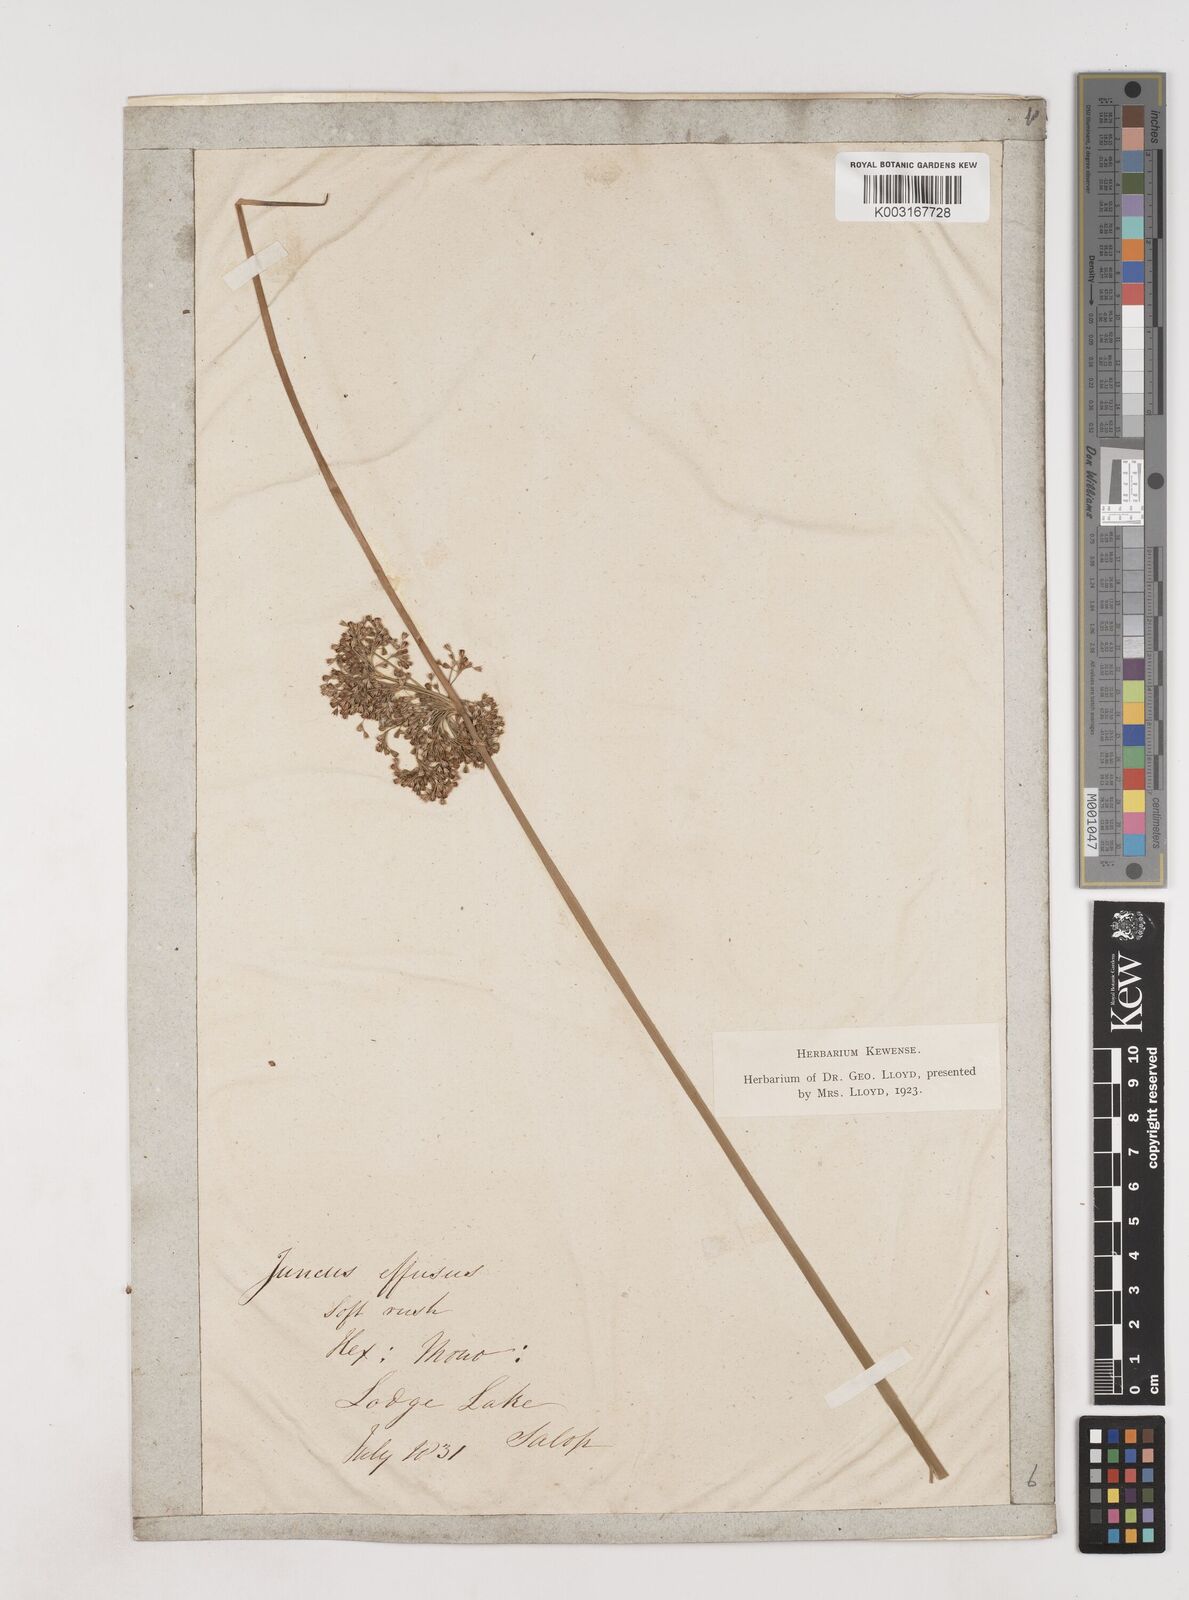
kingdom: Plantae
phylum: Tracheophyta
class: Liliopsida
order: Poales
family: Juncaceae
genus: Juncus
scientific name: Juncus effusus
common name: Soft rush
